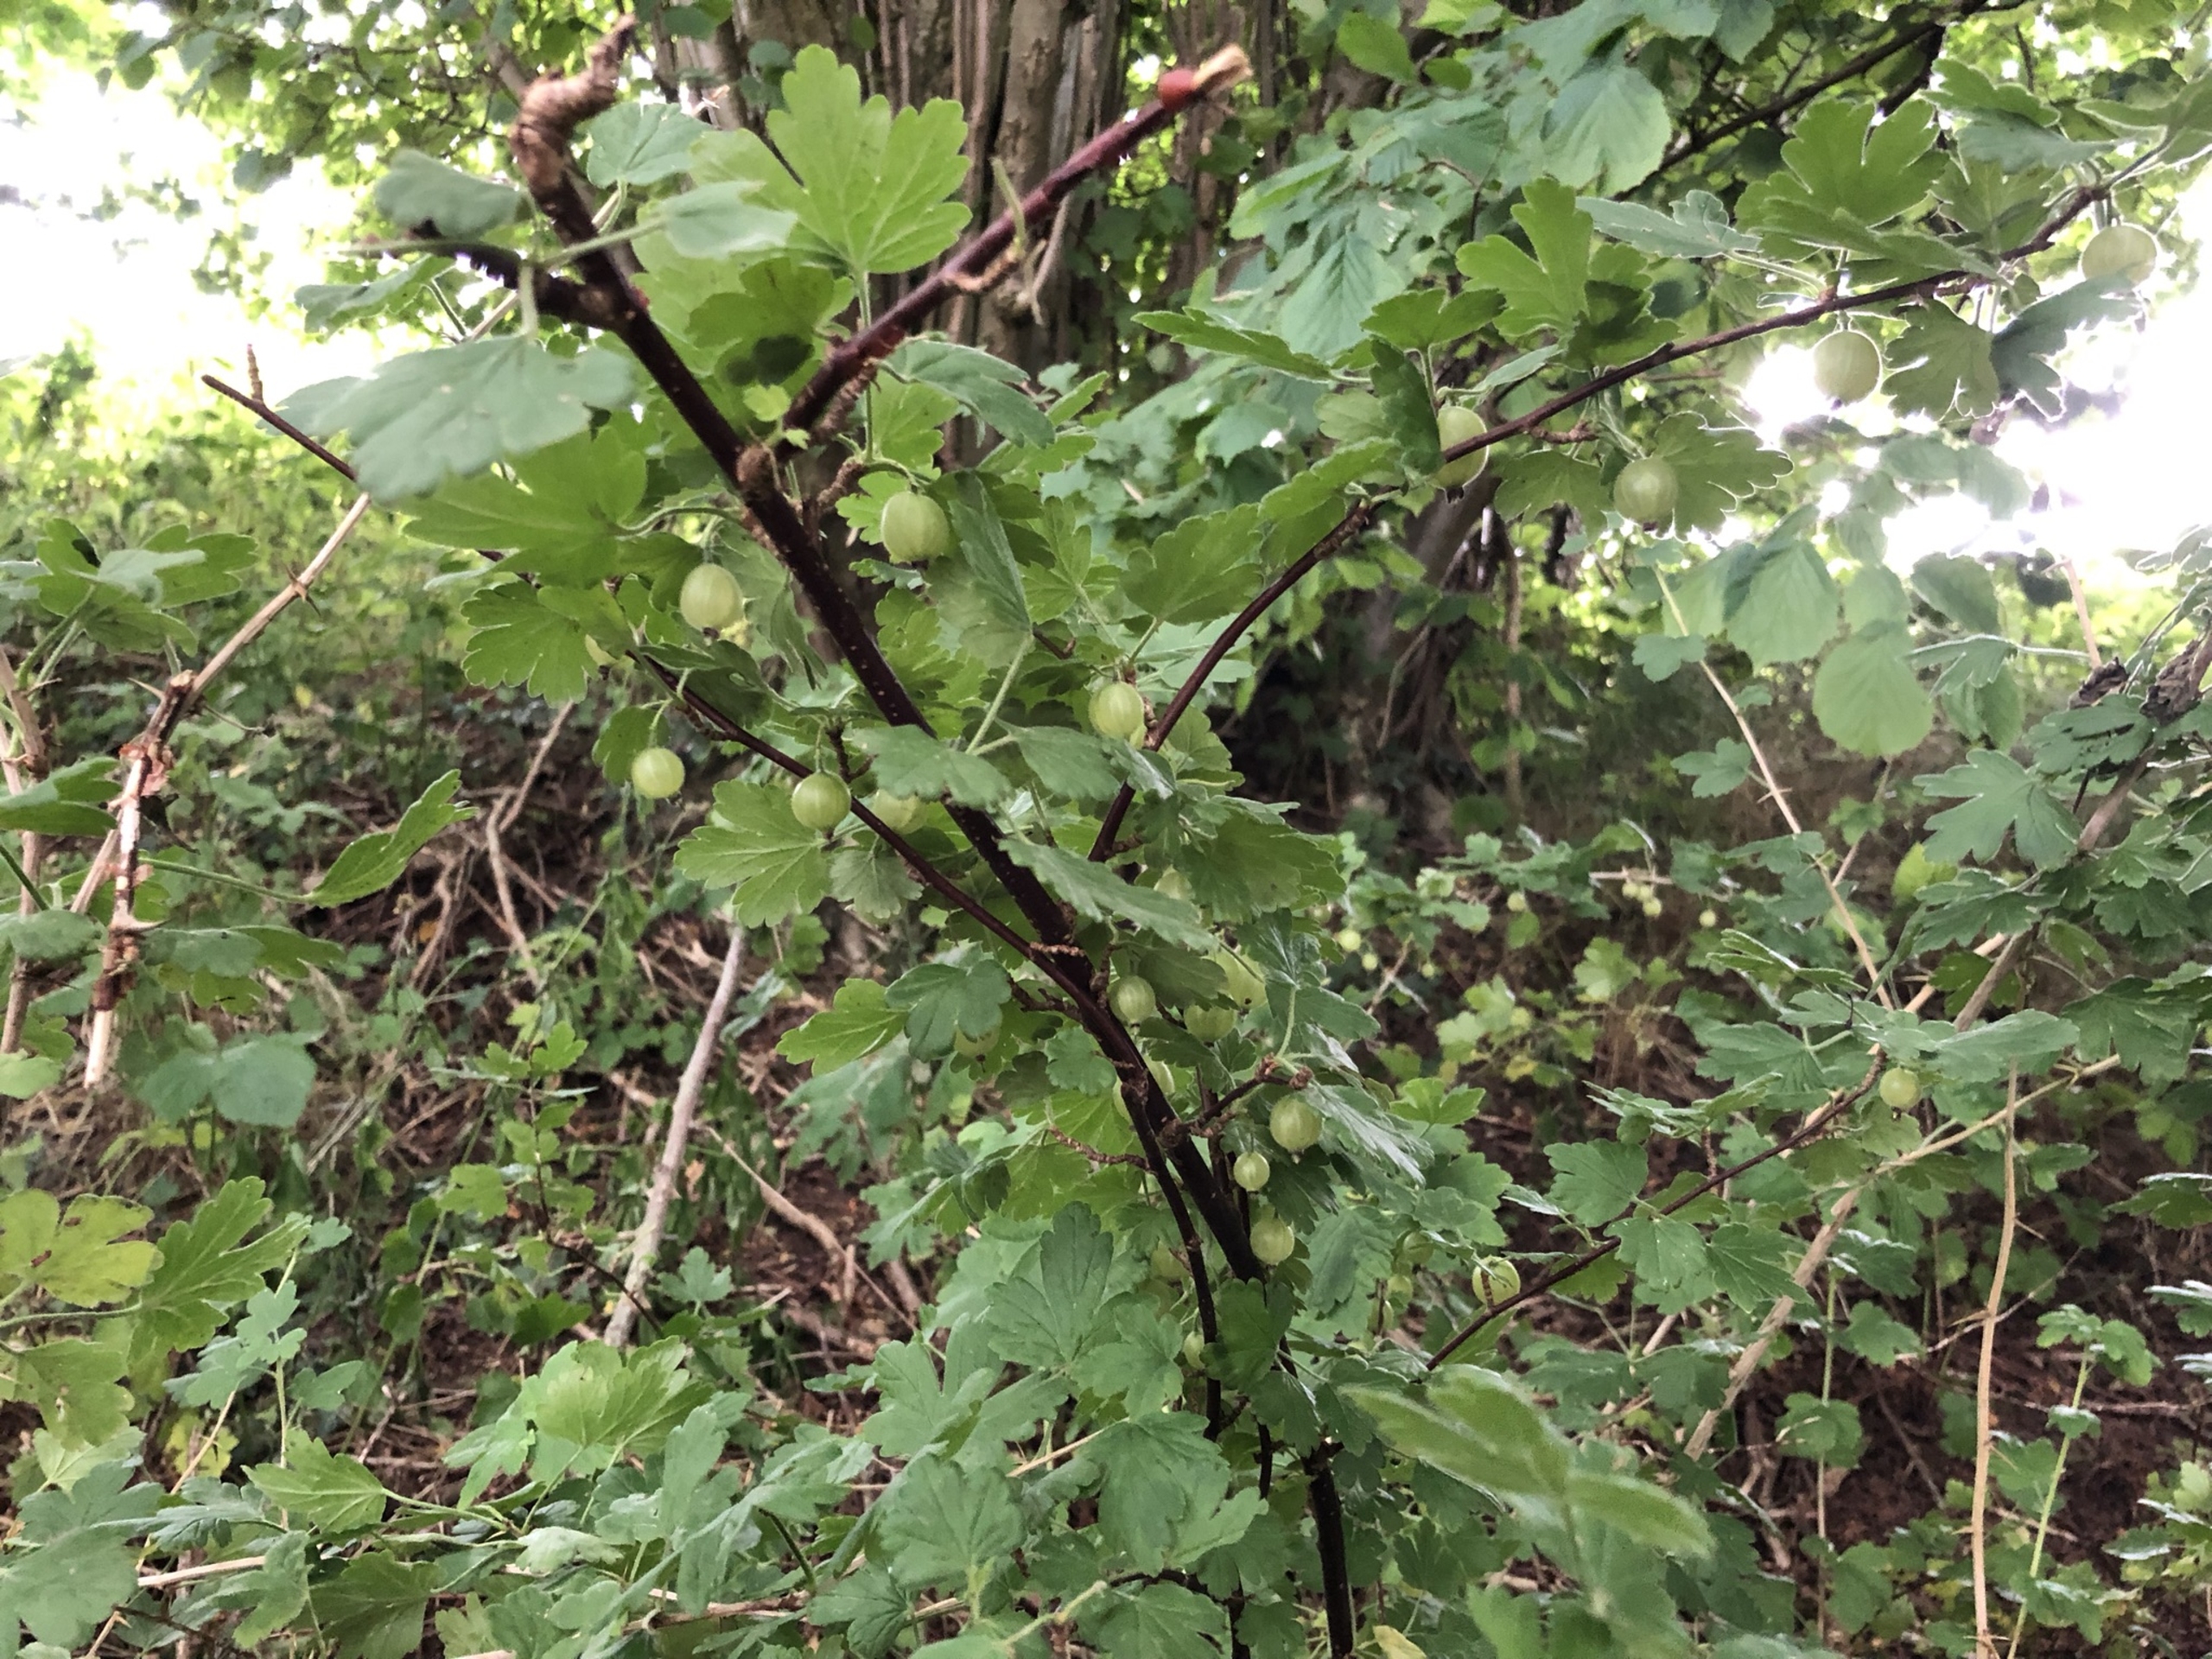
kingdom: Plantae
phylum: Tracheophyta
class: Magnoliopsida
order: Saxifragales
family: Grossulariaceae
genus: Ribes
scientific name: Ribes uva-crispa
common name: Stikkelsbær
